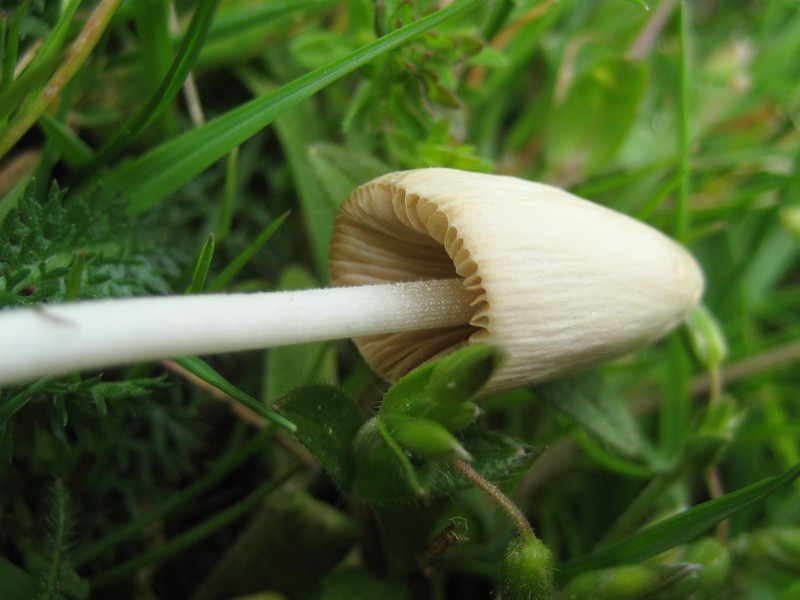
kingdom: Fungi
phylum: Basidiomycota
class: Agaricomycetes
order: Agaricales
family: Bolbitiaceae
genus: Conocybe
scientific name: Conocybe apala
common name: mælkehvid keglehat
